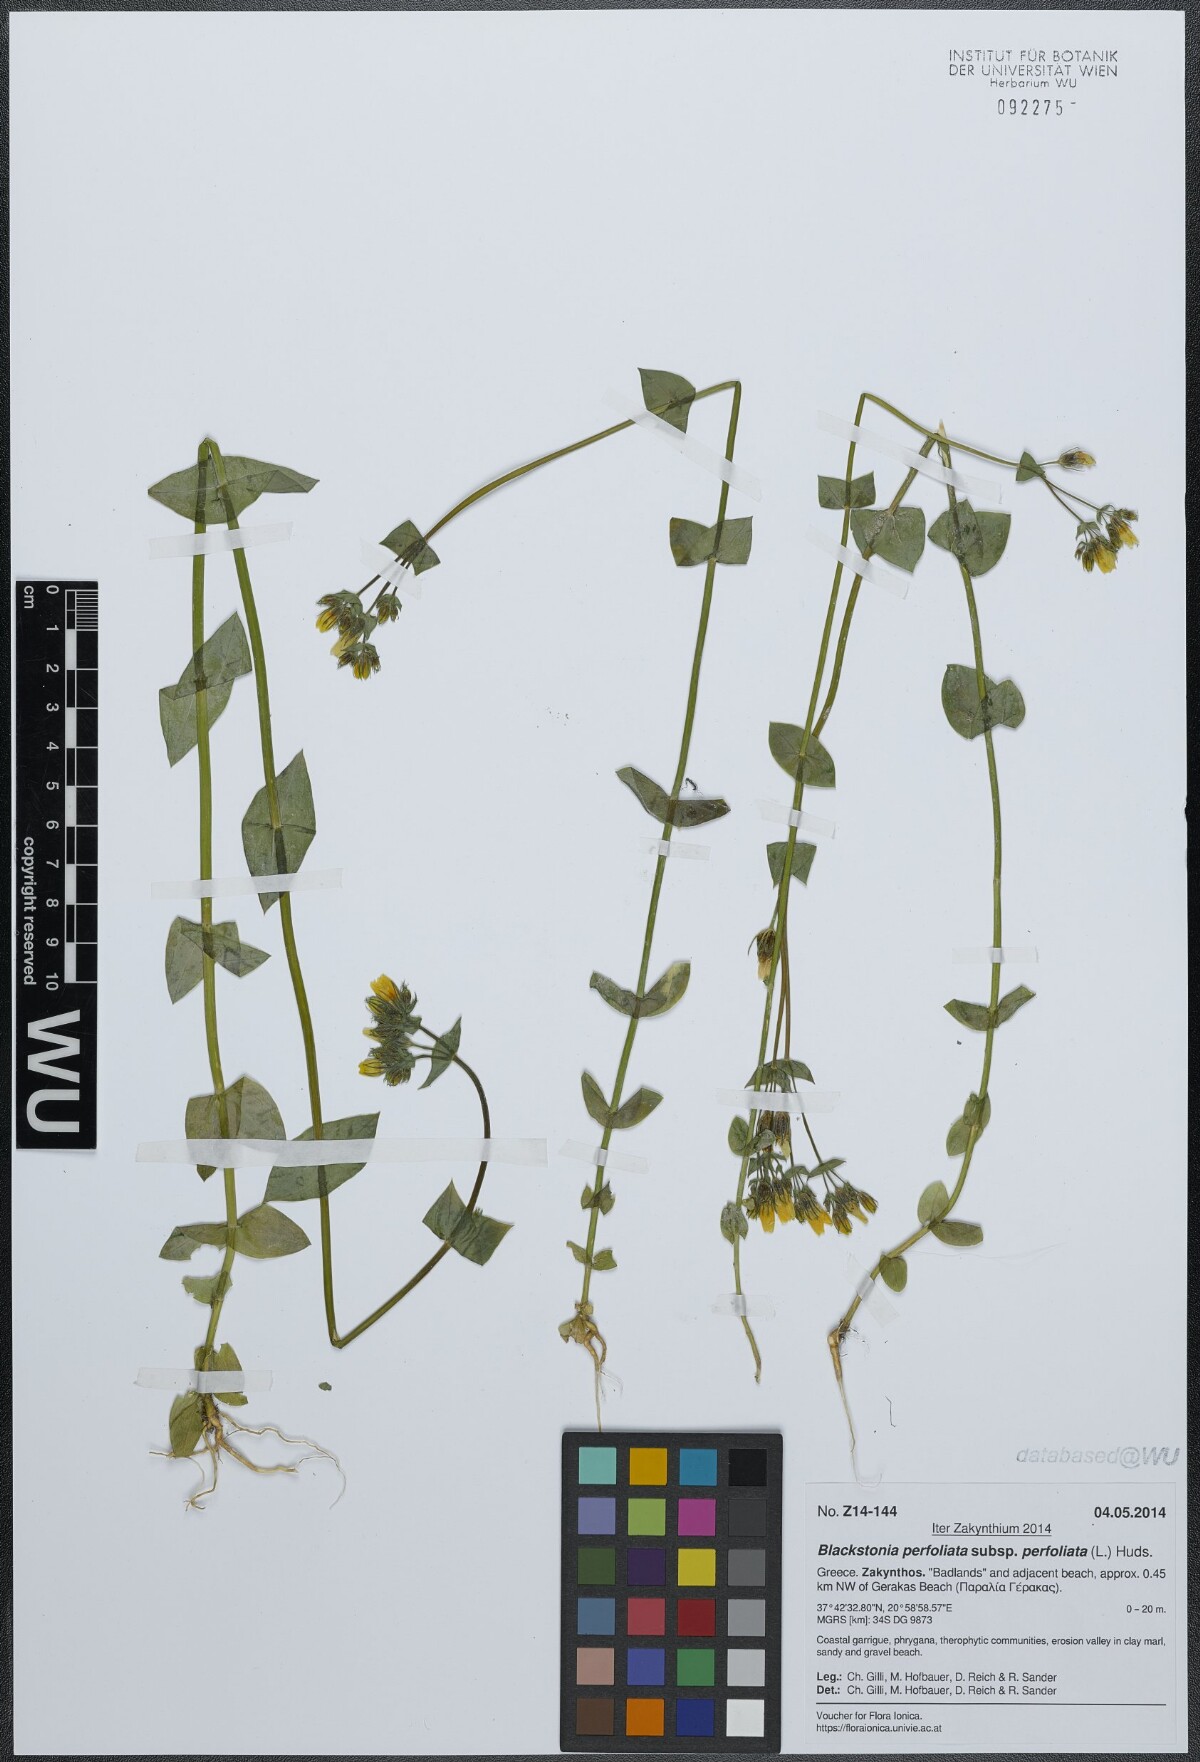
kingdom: Plantae
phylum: Tracheophyta
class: Magnoliopsida
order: Gentianales
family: Gentianaceae
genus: Blackstonia
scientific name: Blackstonia perfoliata
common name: Yellow-wort
